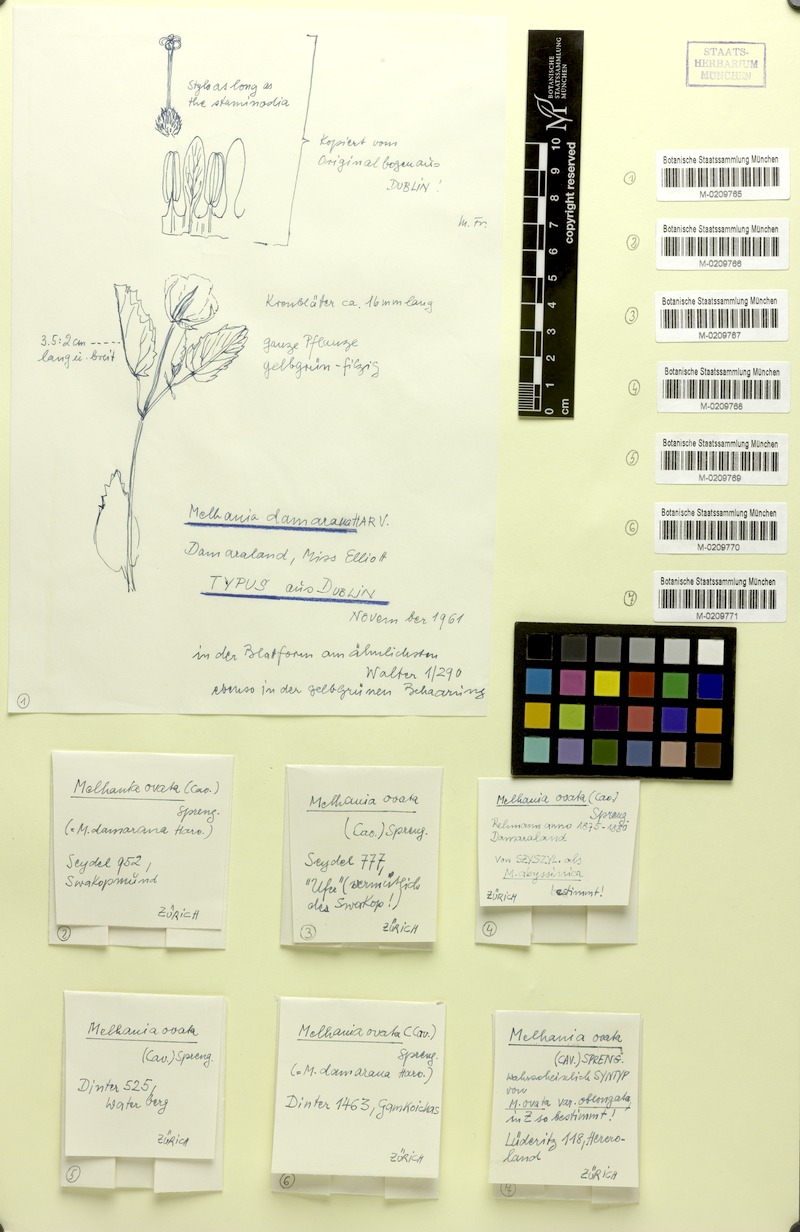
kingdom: Plantae
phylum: Tracheophyta
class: Magnoliopsida
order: Malvales
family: Malvaceae
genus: Melhania
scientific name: Melhania damarana
